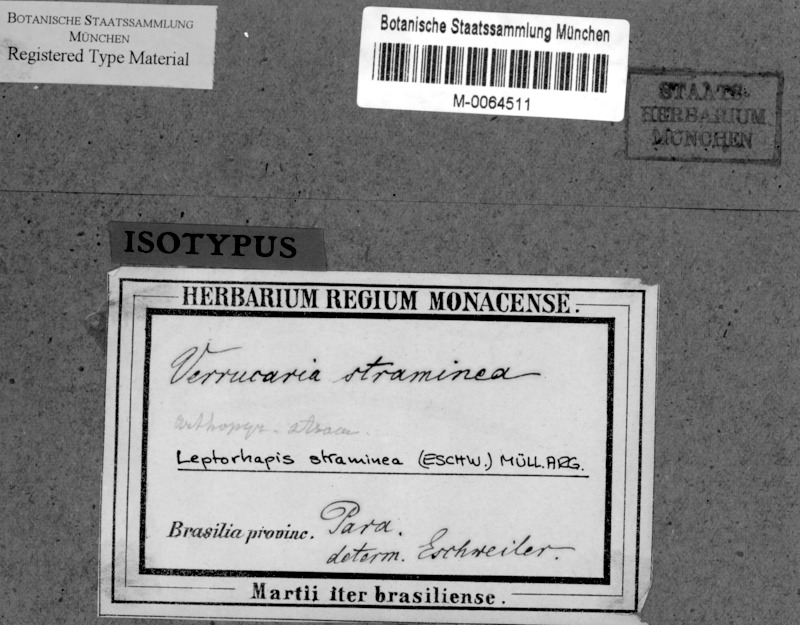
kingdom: Fungi
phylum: Ascomycota
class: Dothideomycetes
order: Pleosporales
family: Naetrocymbaceae
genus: Leptorhaphis
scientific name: Leptorhaphis
